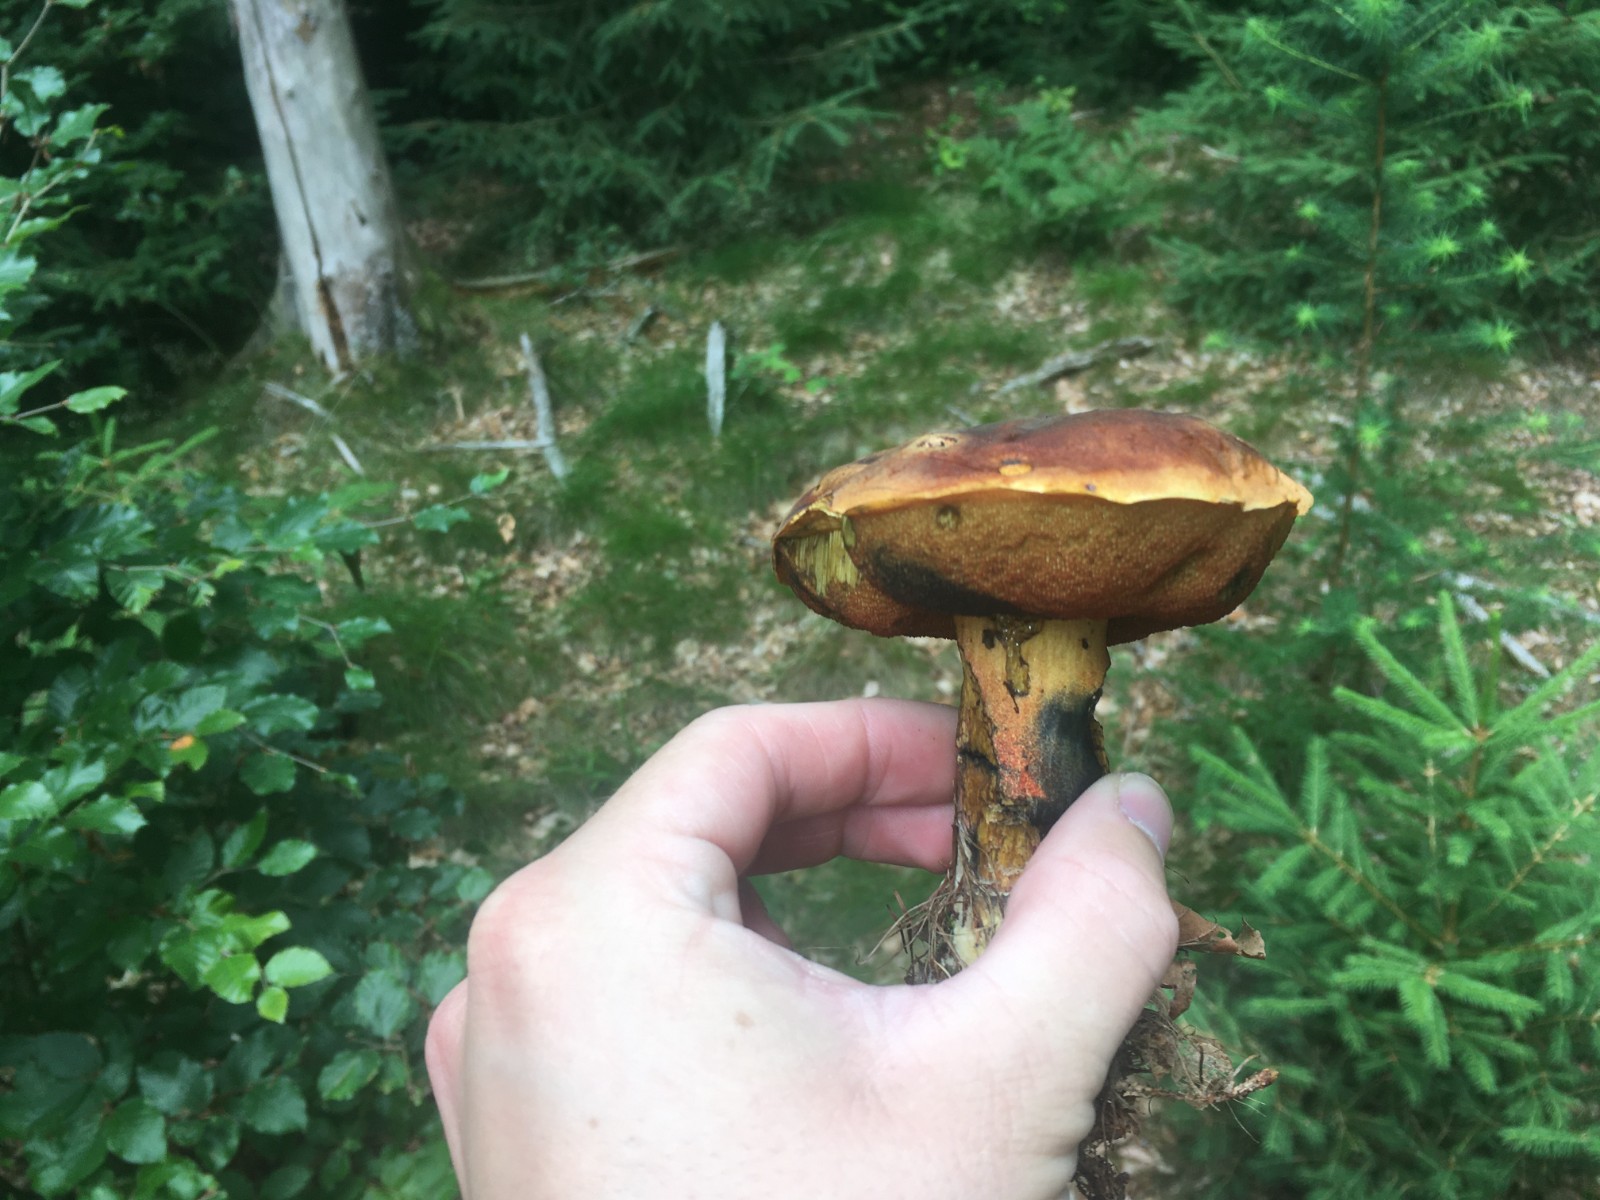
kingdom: Fungi
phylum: Basidiomycota
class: Agaricomycetes
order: Boletales
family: Boletaceae
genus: Neoboletus
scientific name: Neoboletus erythropus
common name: punktstokket indigorørhat
